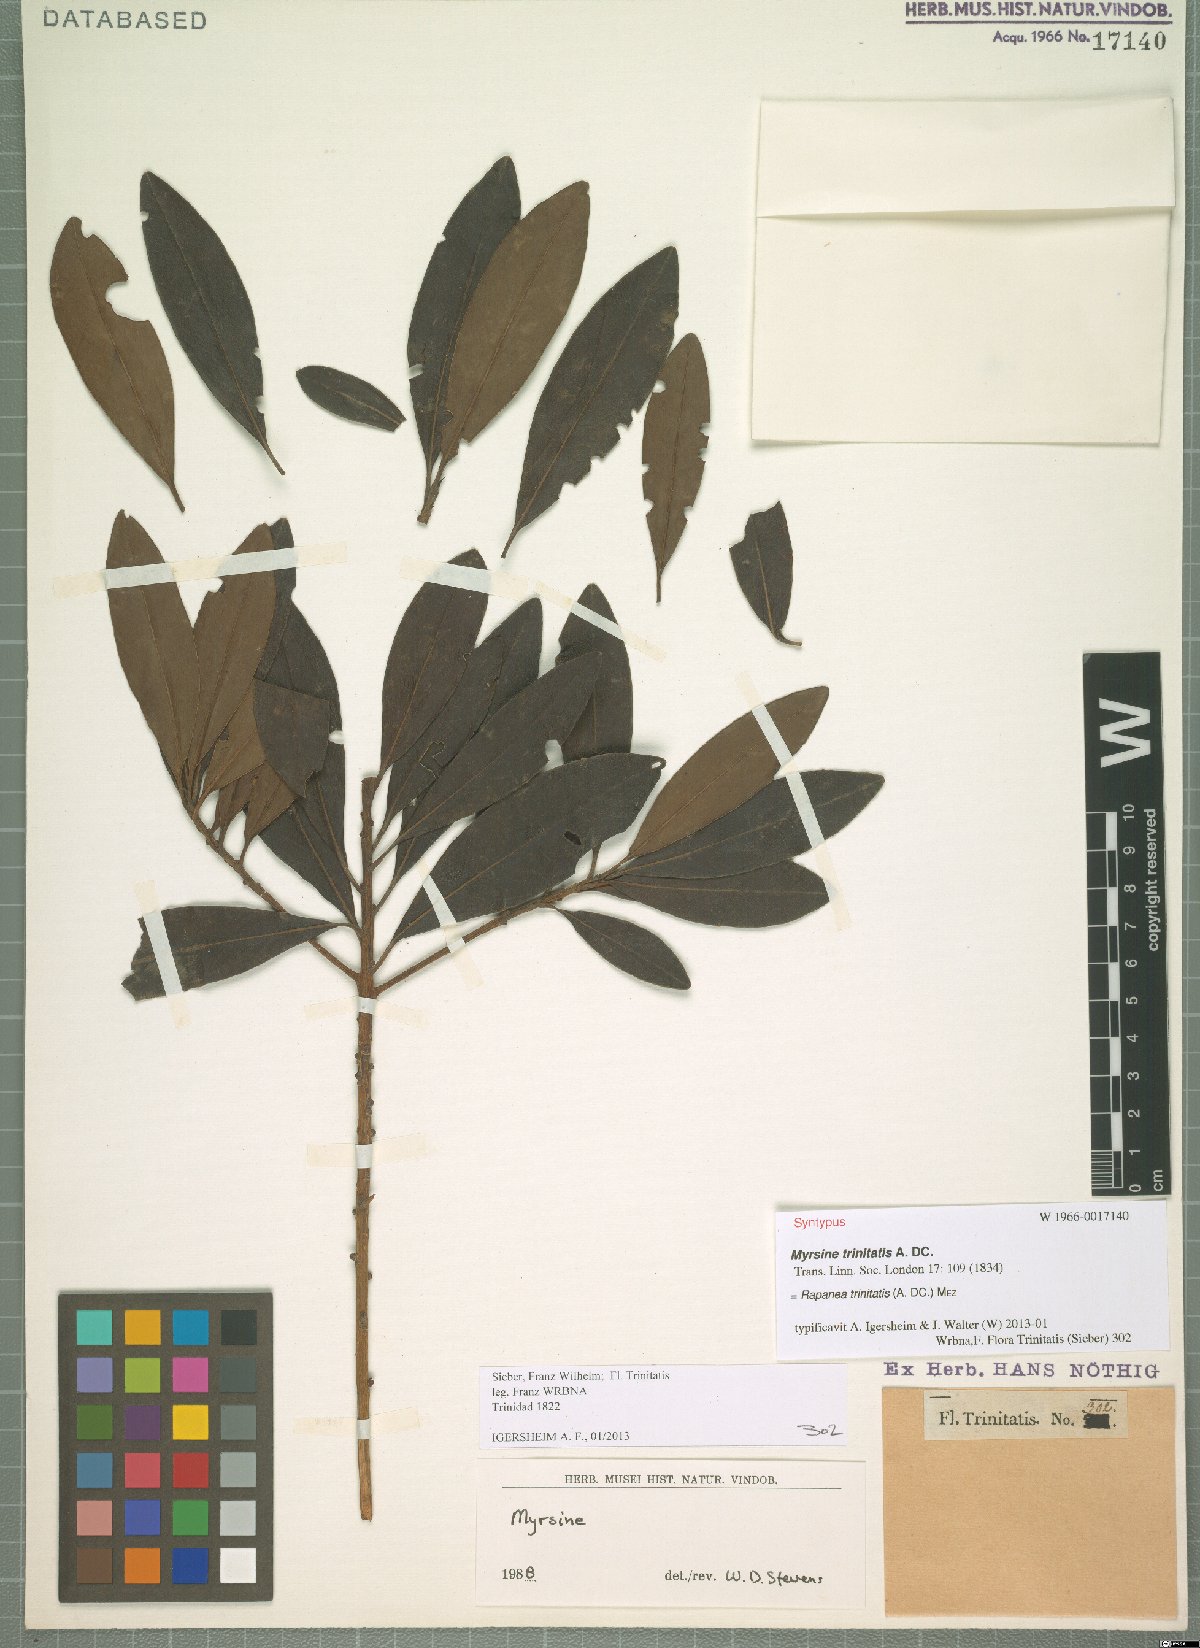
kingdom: Plantae
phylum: Tracheophyta
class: Magnoliopsida
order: Ericales
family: Primulaceae
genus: Myrsine
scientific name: Myrsine trinitatis
